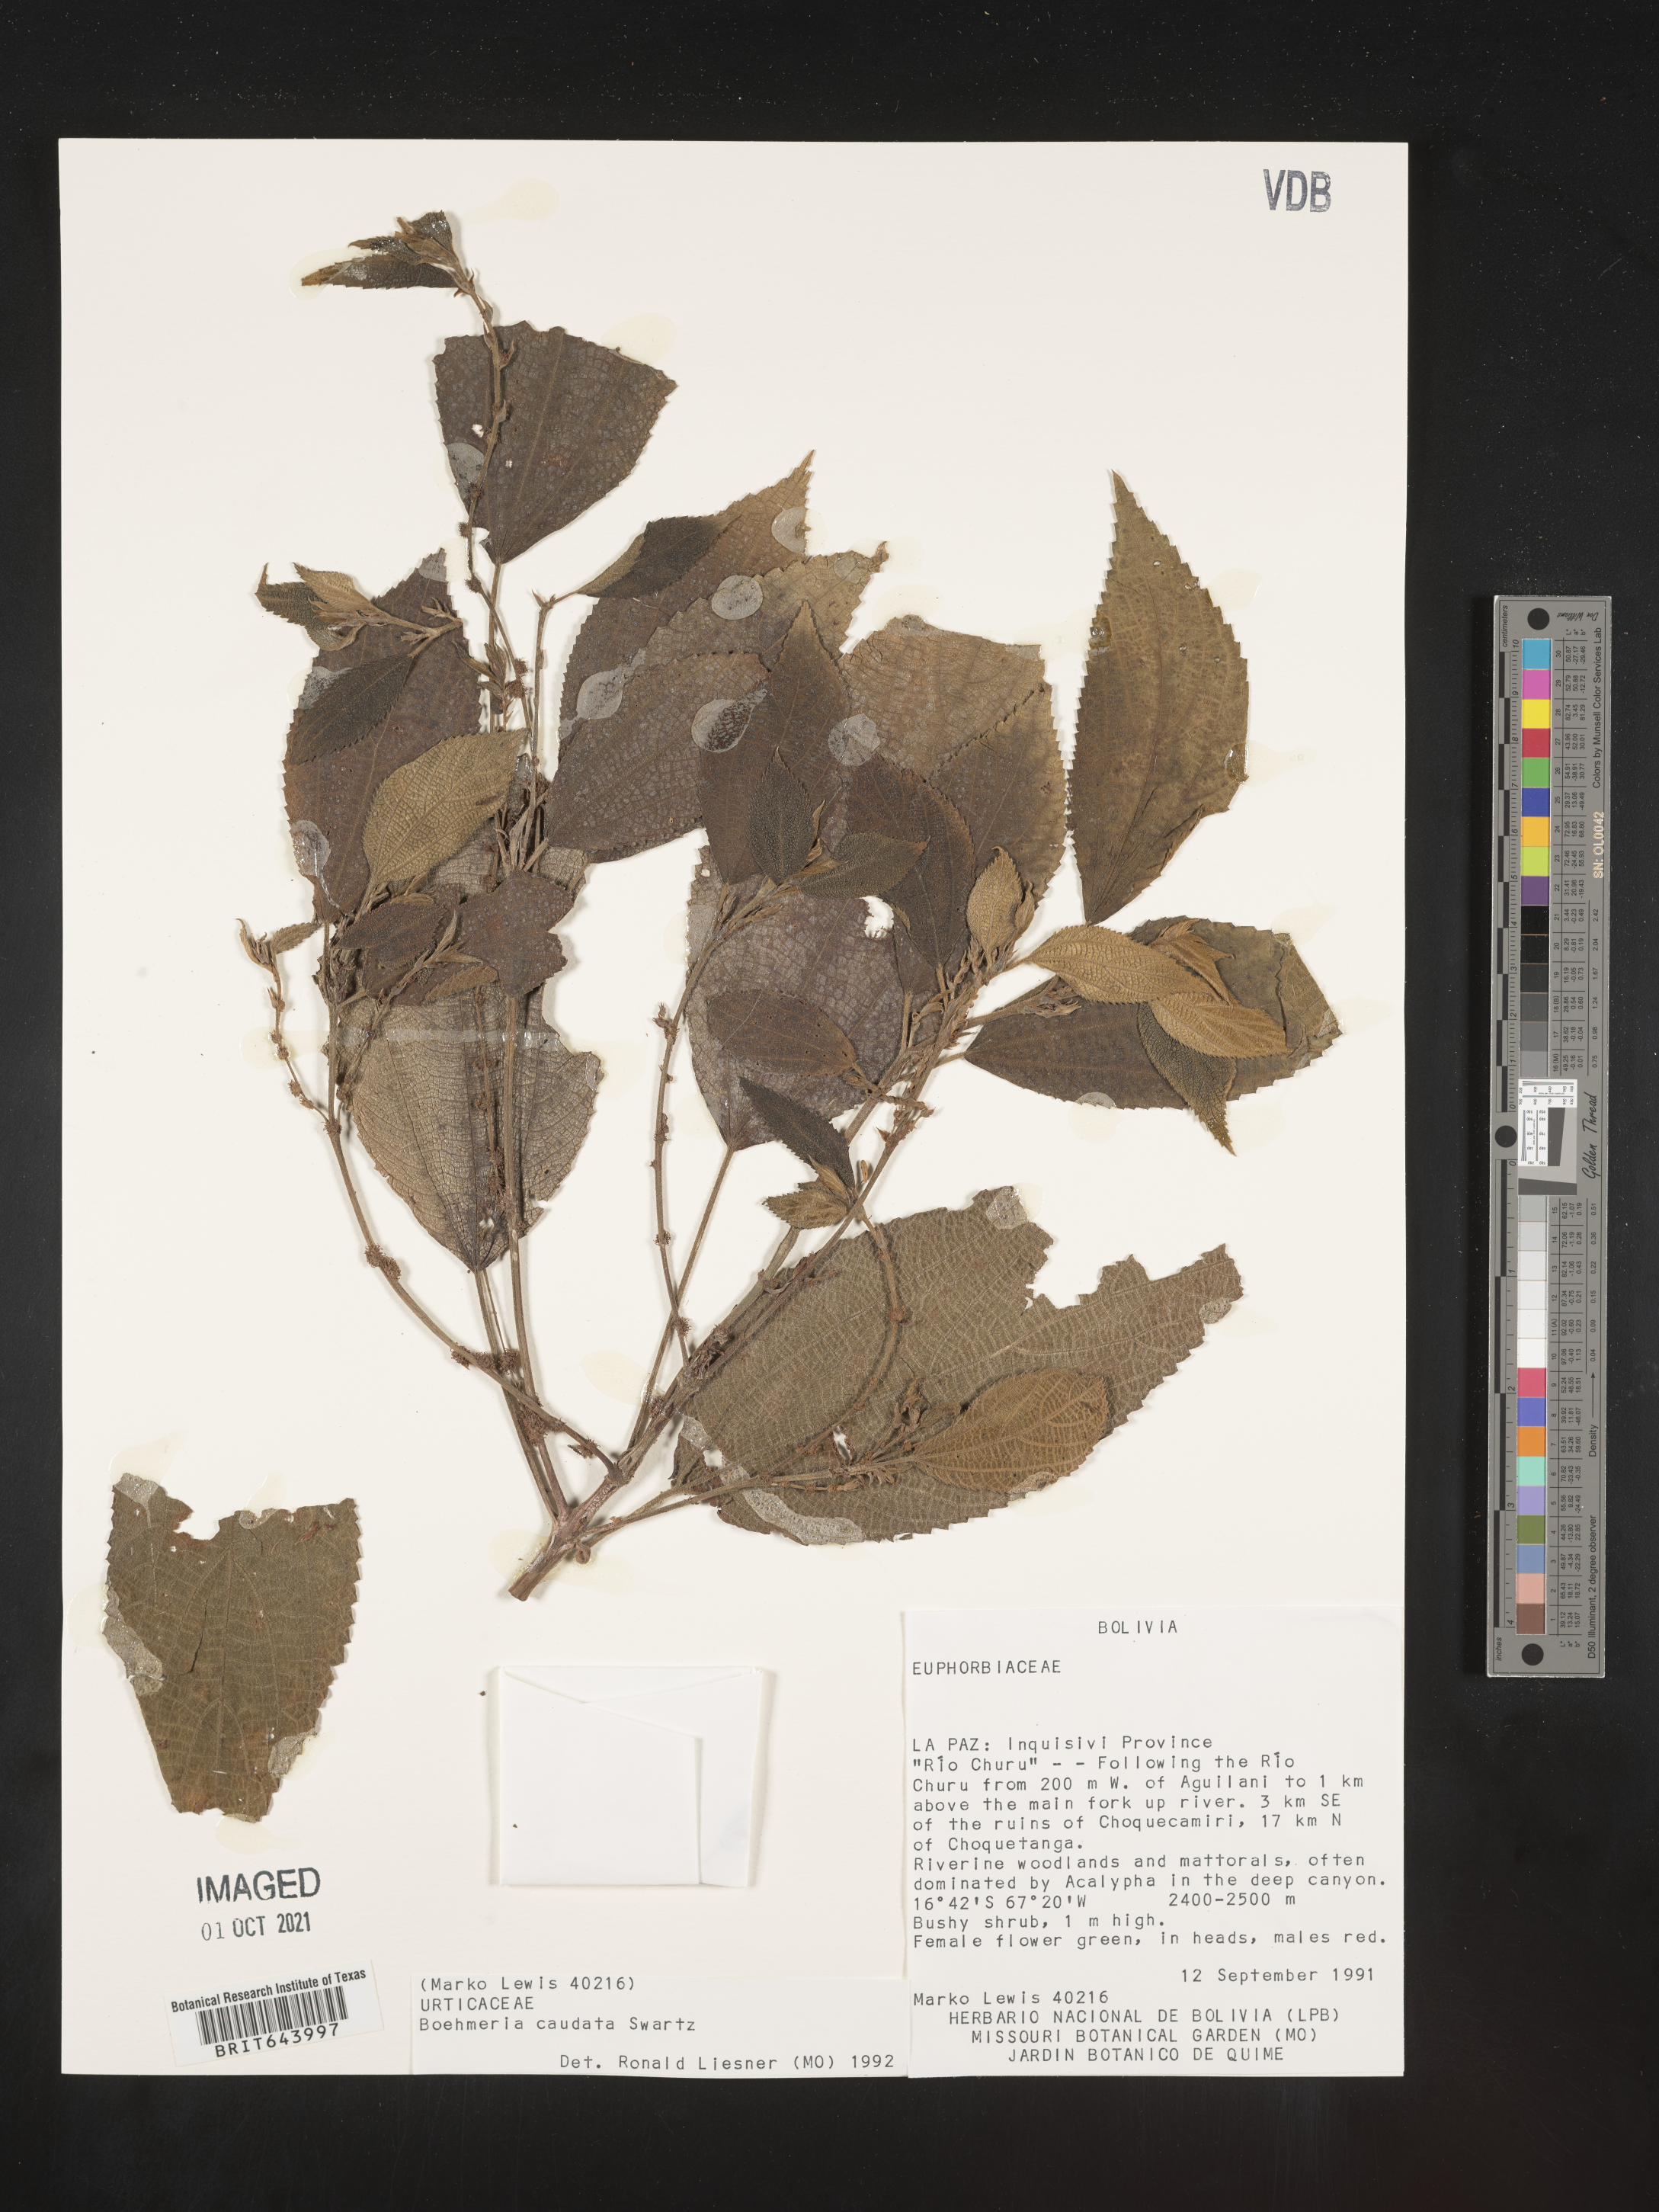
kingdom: Plantae
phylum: Tracheophyta
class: Magnoliopsida
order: Rosales
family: Urticaceae
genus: Boehmeria
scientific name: Boehmeria
